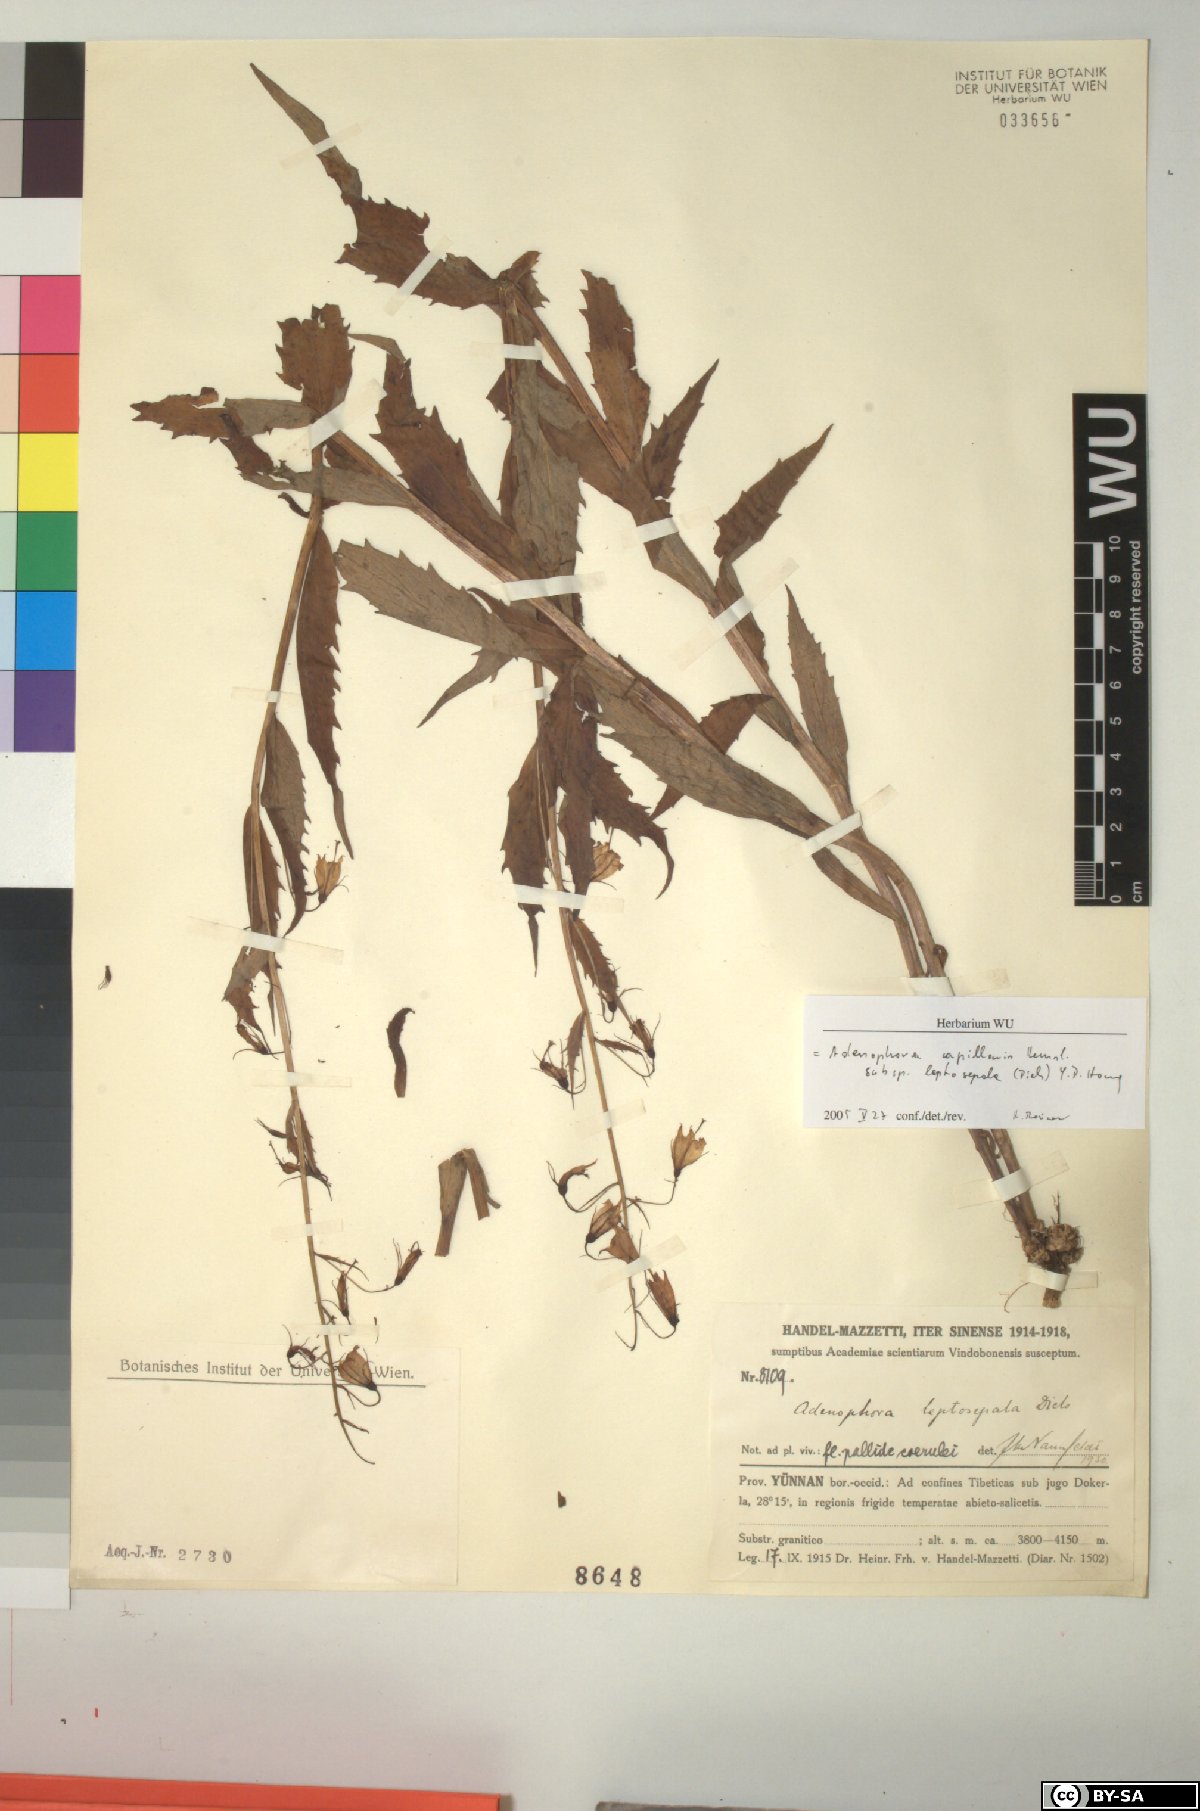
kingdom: Plantae
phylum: Tracheophyta
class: Magnoliopsida
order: Asterales
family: Campanulaceae
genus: Adenophora
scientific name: Adenophora capillaris
